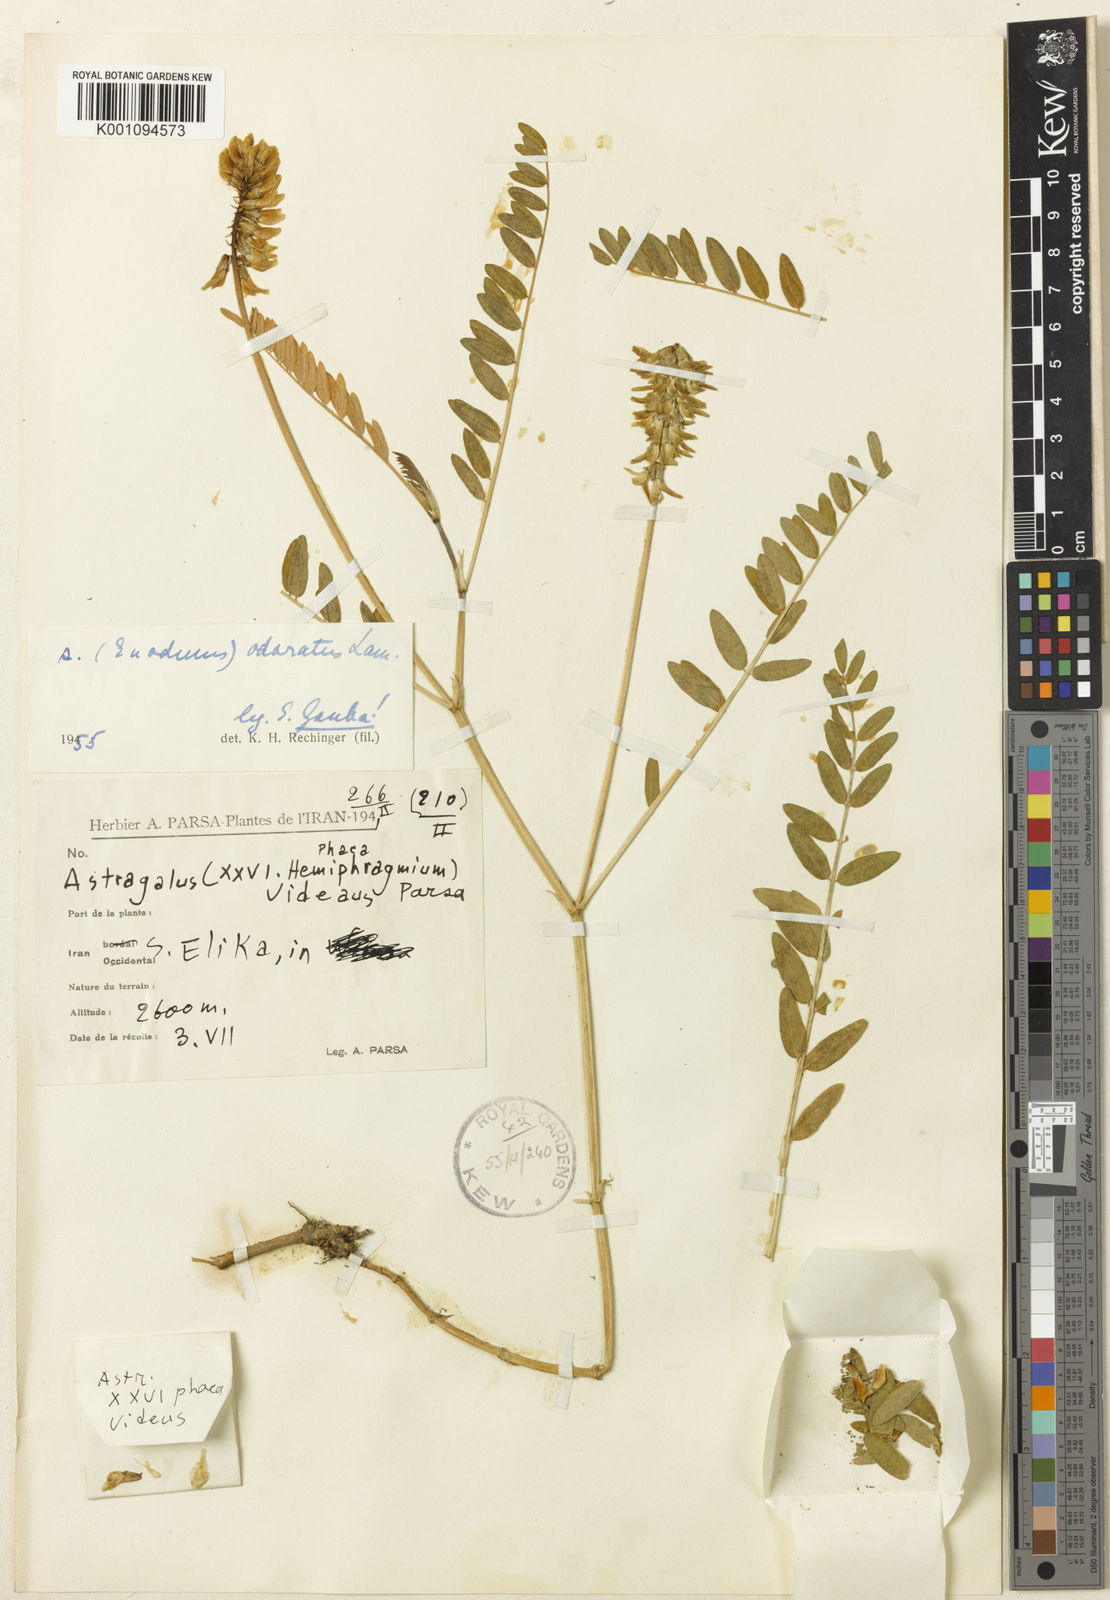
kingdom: Plantae
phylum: Tracheophyta
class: Magnoliopsida
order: Fabales
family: Fabaceae
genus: Astragalus
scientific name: Astragalus odoratus
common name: Lesser milk-vetch
